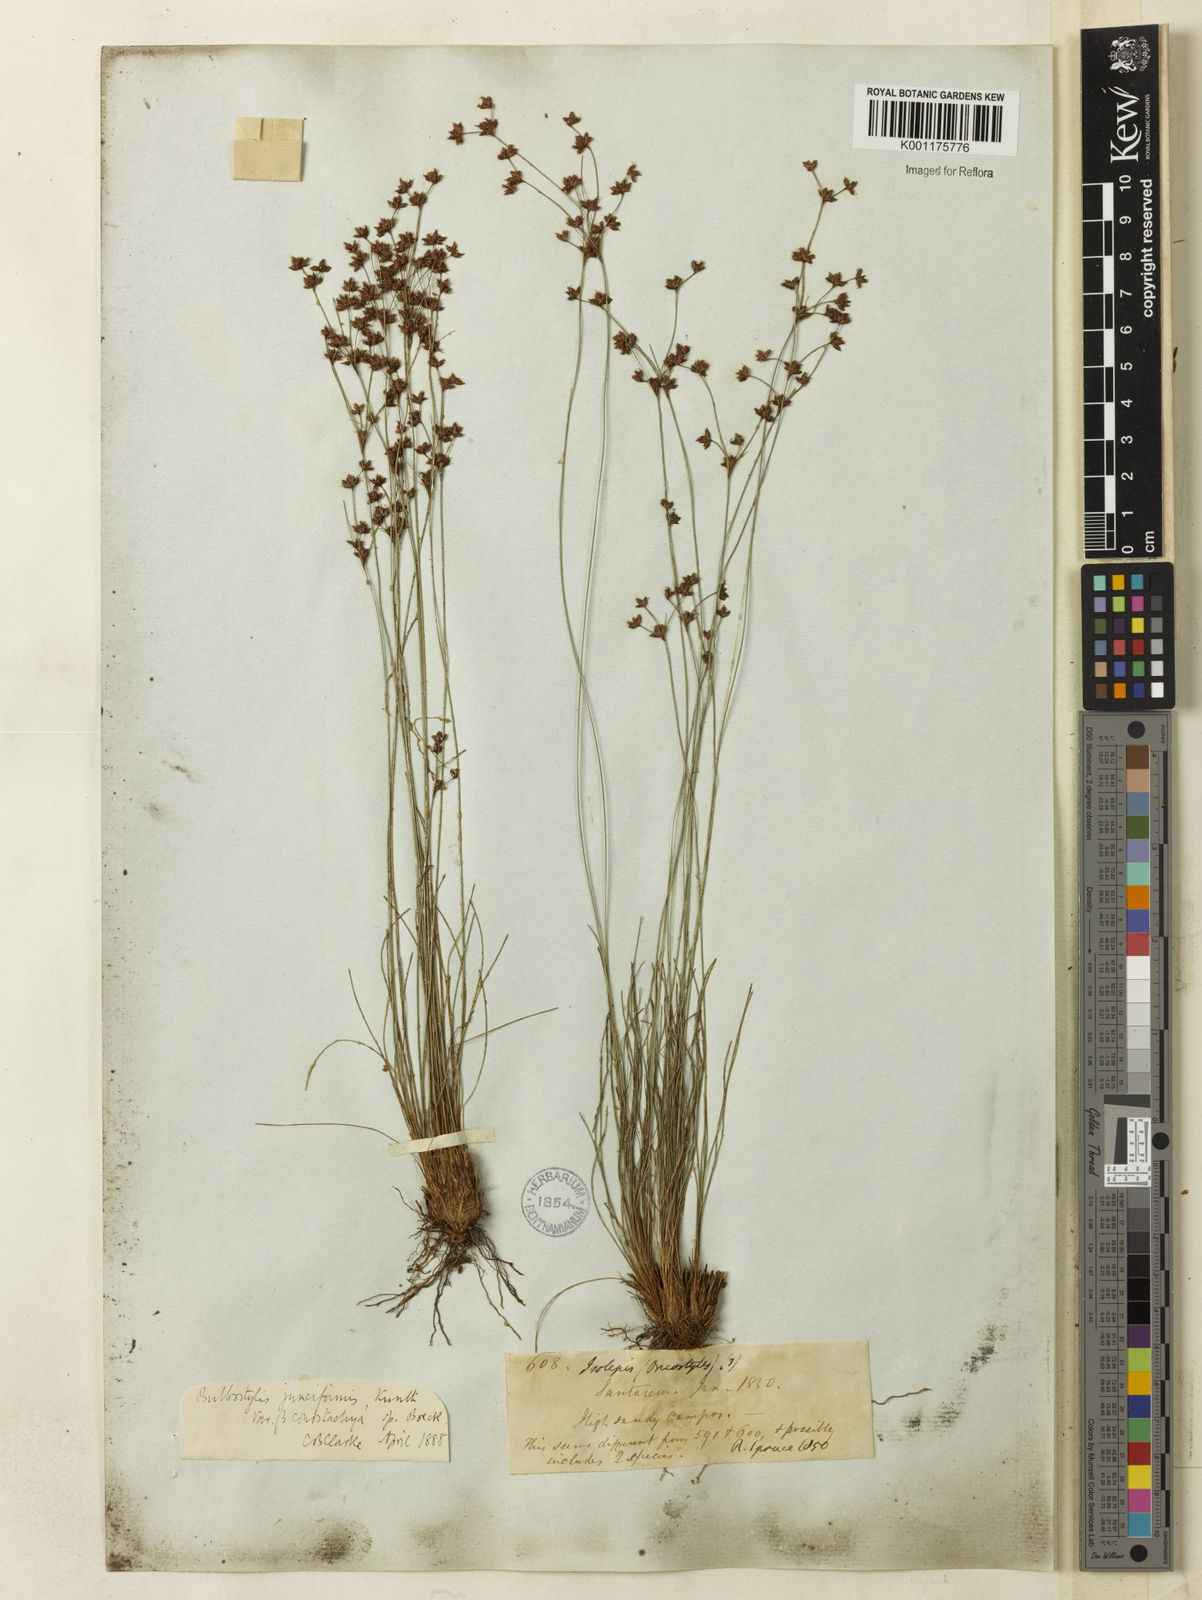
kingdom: Plantae
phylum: Tracheophyta
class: Liliopsida
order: Poales
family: Cyperaceae
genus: Bulbostylis
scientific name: Bulbostylis junciformis
